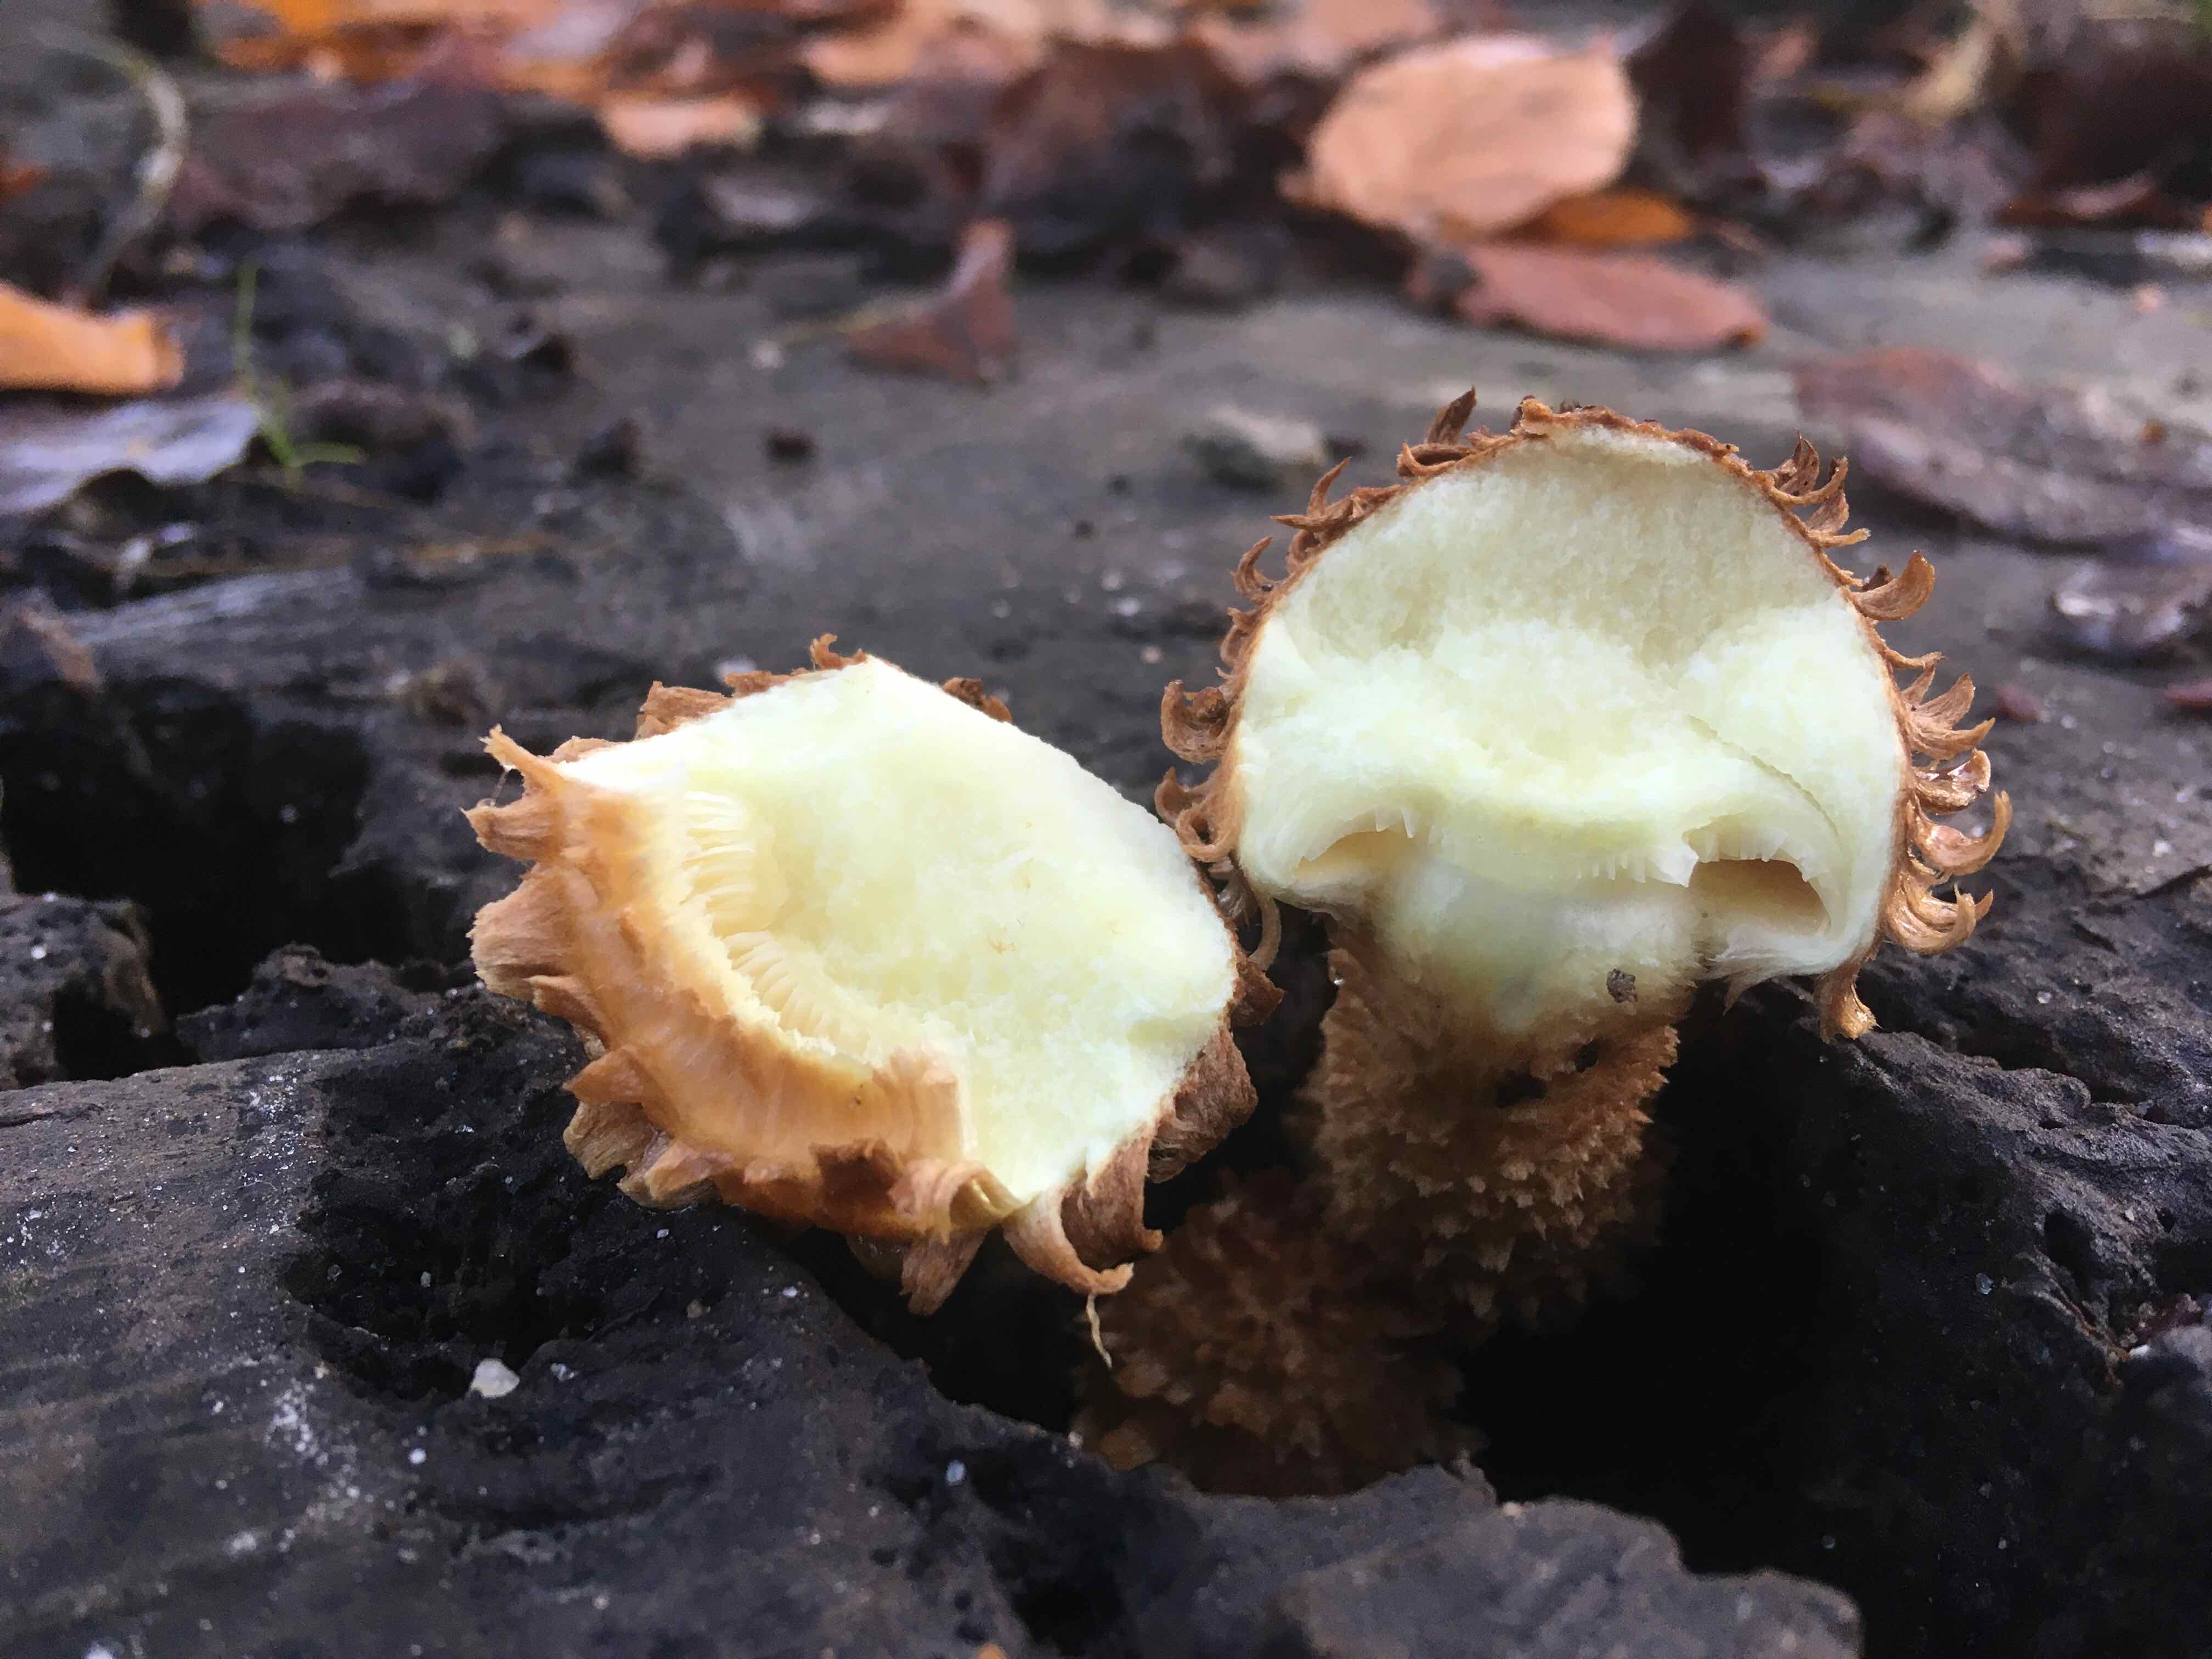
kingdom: Fungi
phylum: Basidiomycota
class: Agaricomycetes
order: Agaricales
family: Strophariaceae
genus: Pholiota
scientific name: Pholiota squarrosa
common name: krumskællet skælhat
